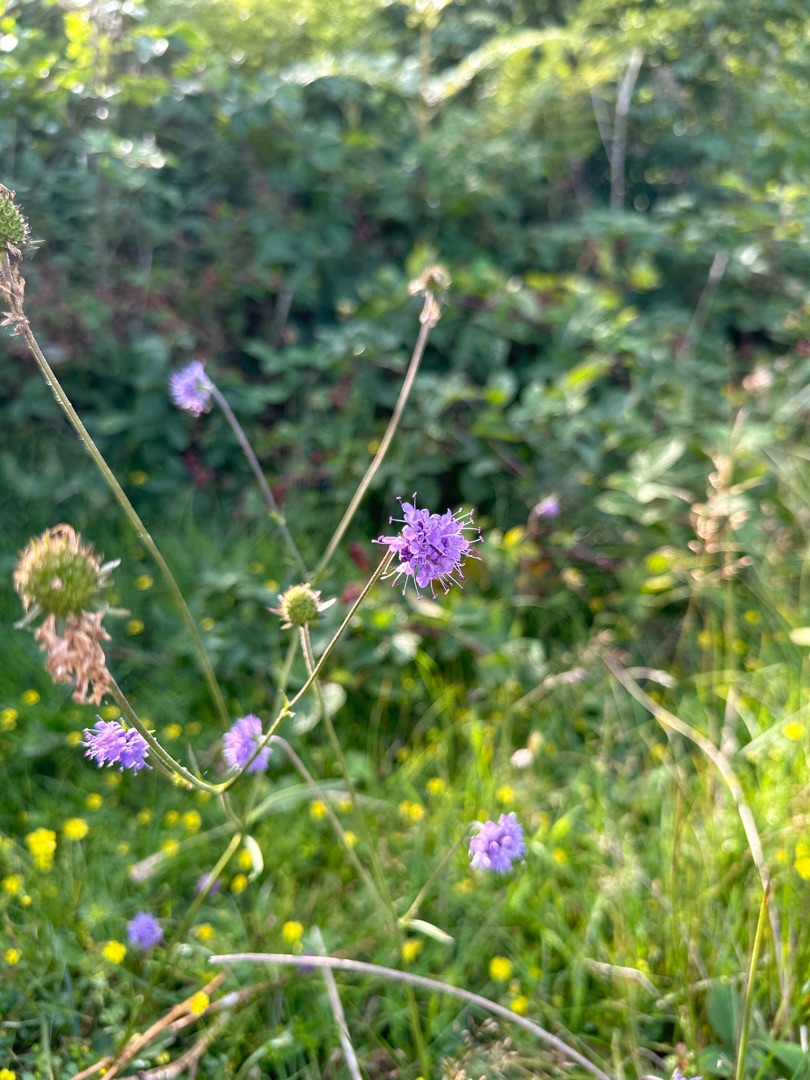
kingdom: Plantae
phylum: Tracheophyta
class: Magnoliopsida
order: Dipsacales
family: Caprifoliaceae
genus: Succisa
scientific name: Succisa pratensis
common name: Djævelsbid
